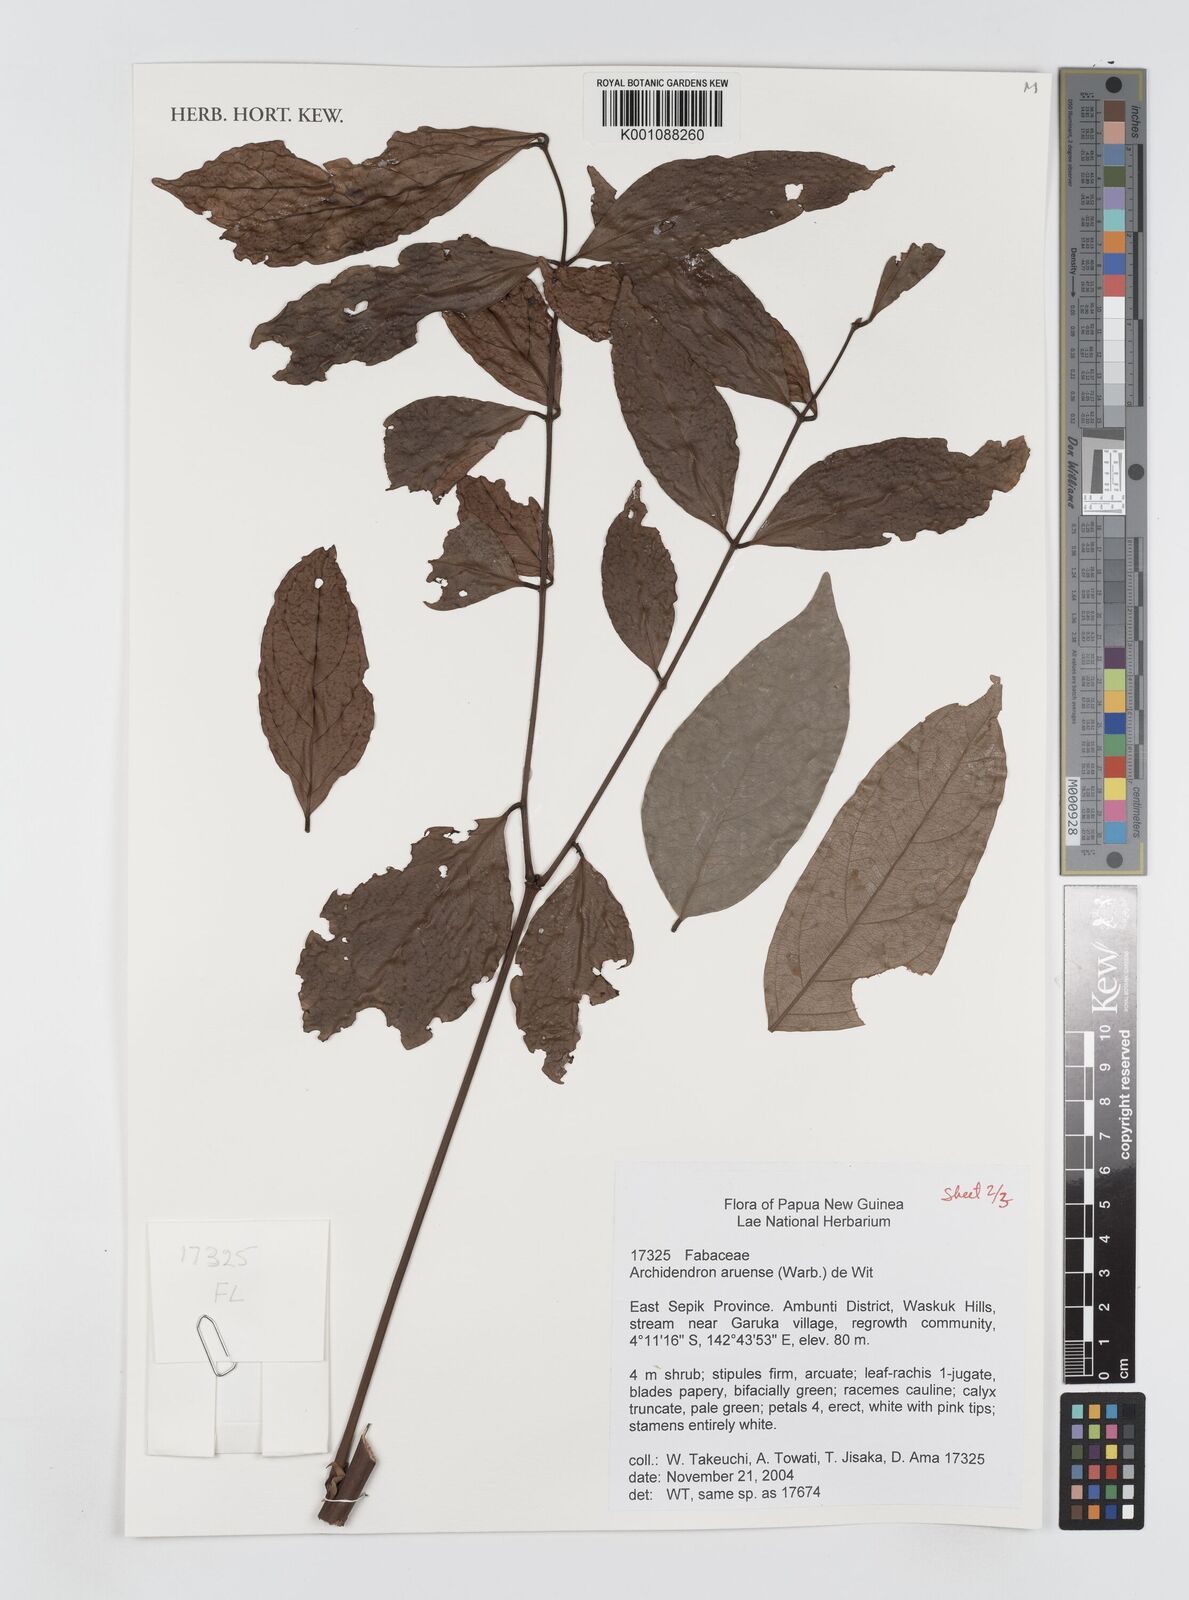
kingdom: Plantae
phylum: Tracheophyta
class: Magnoliopsida
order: Fabales
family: Fabaceae
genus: Archidendron
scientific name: Archidendron aruense
